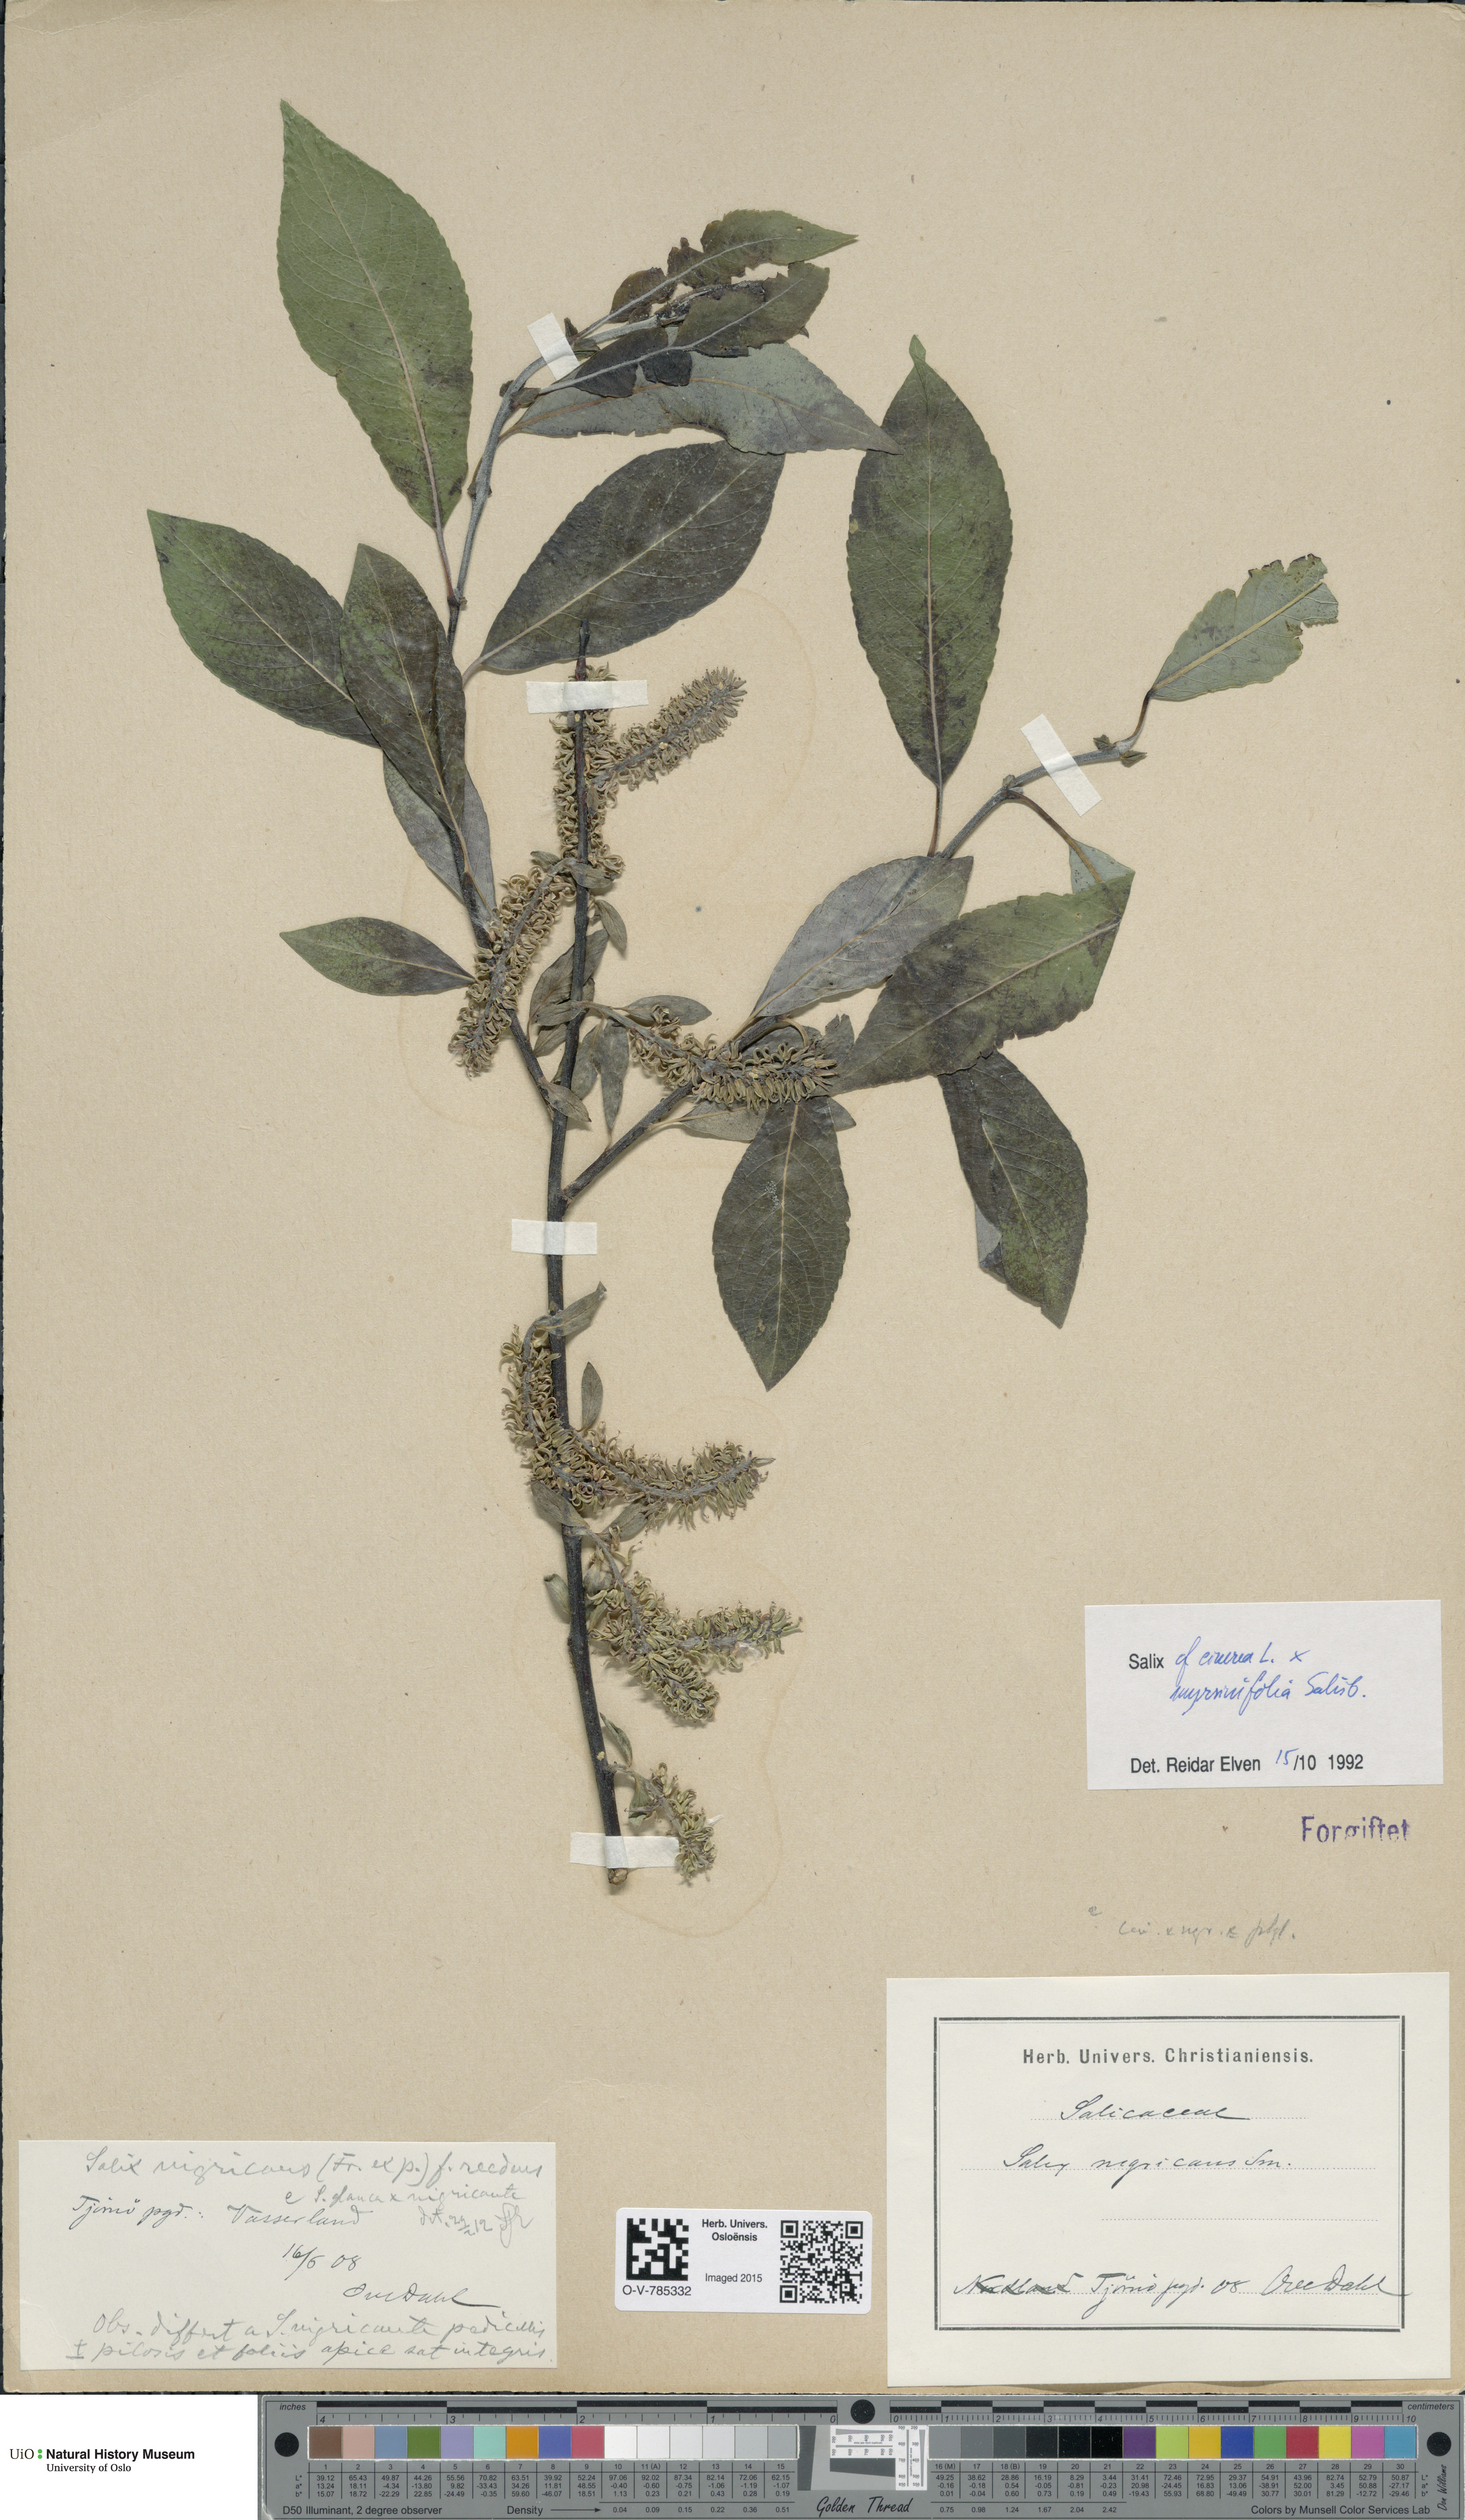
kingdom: Plantae
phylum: Tracheophyta
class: Magnoliopsida
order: Malpighiales
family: Salicaceae
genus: Salix
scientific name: Salix
